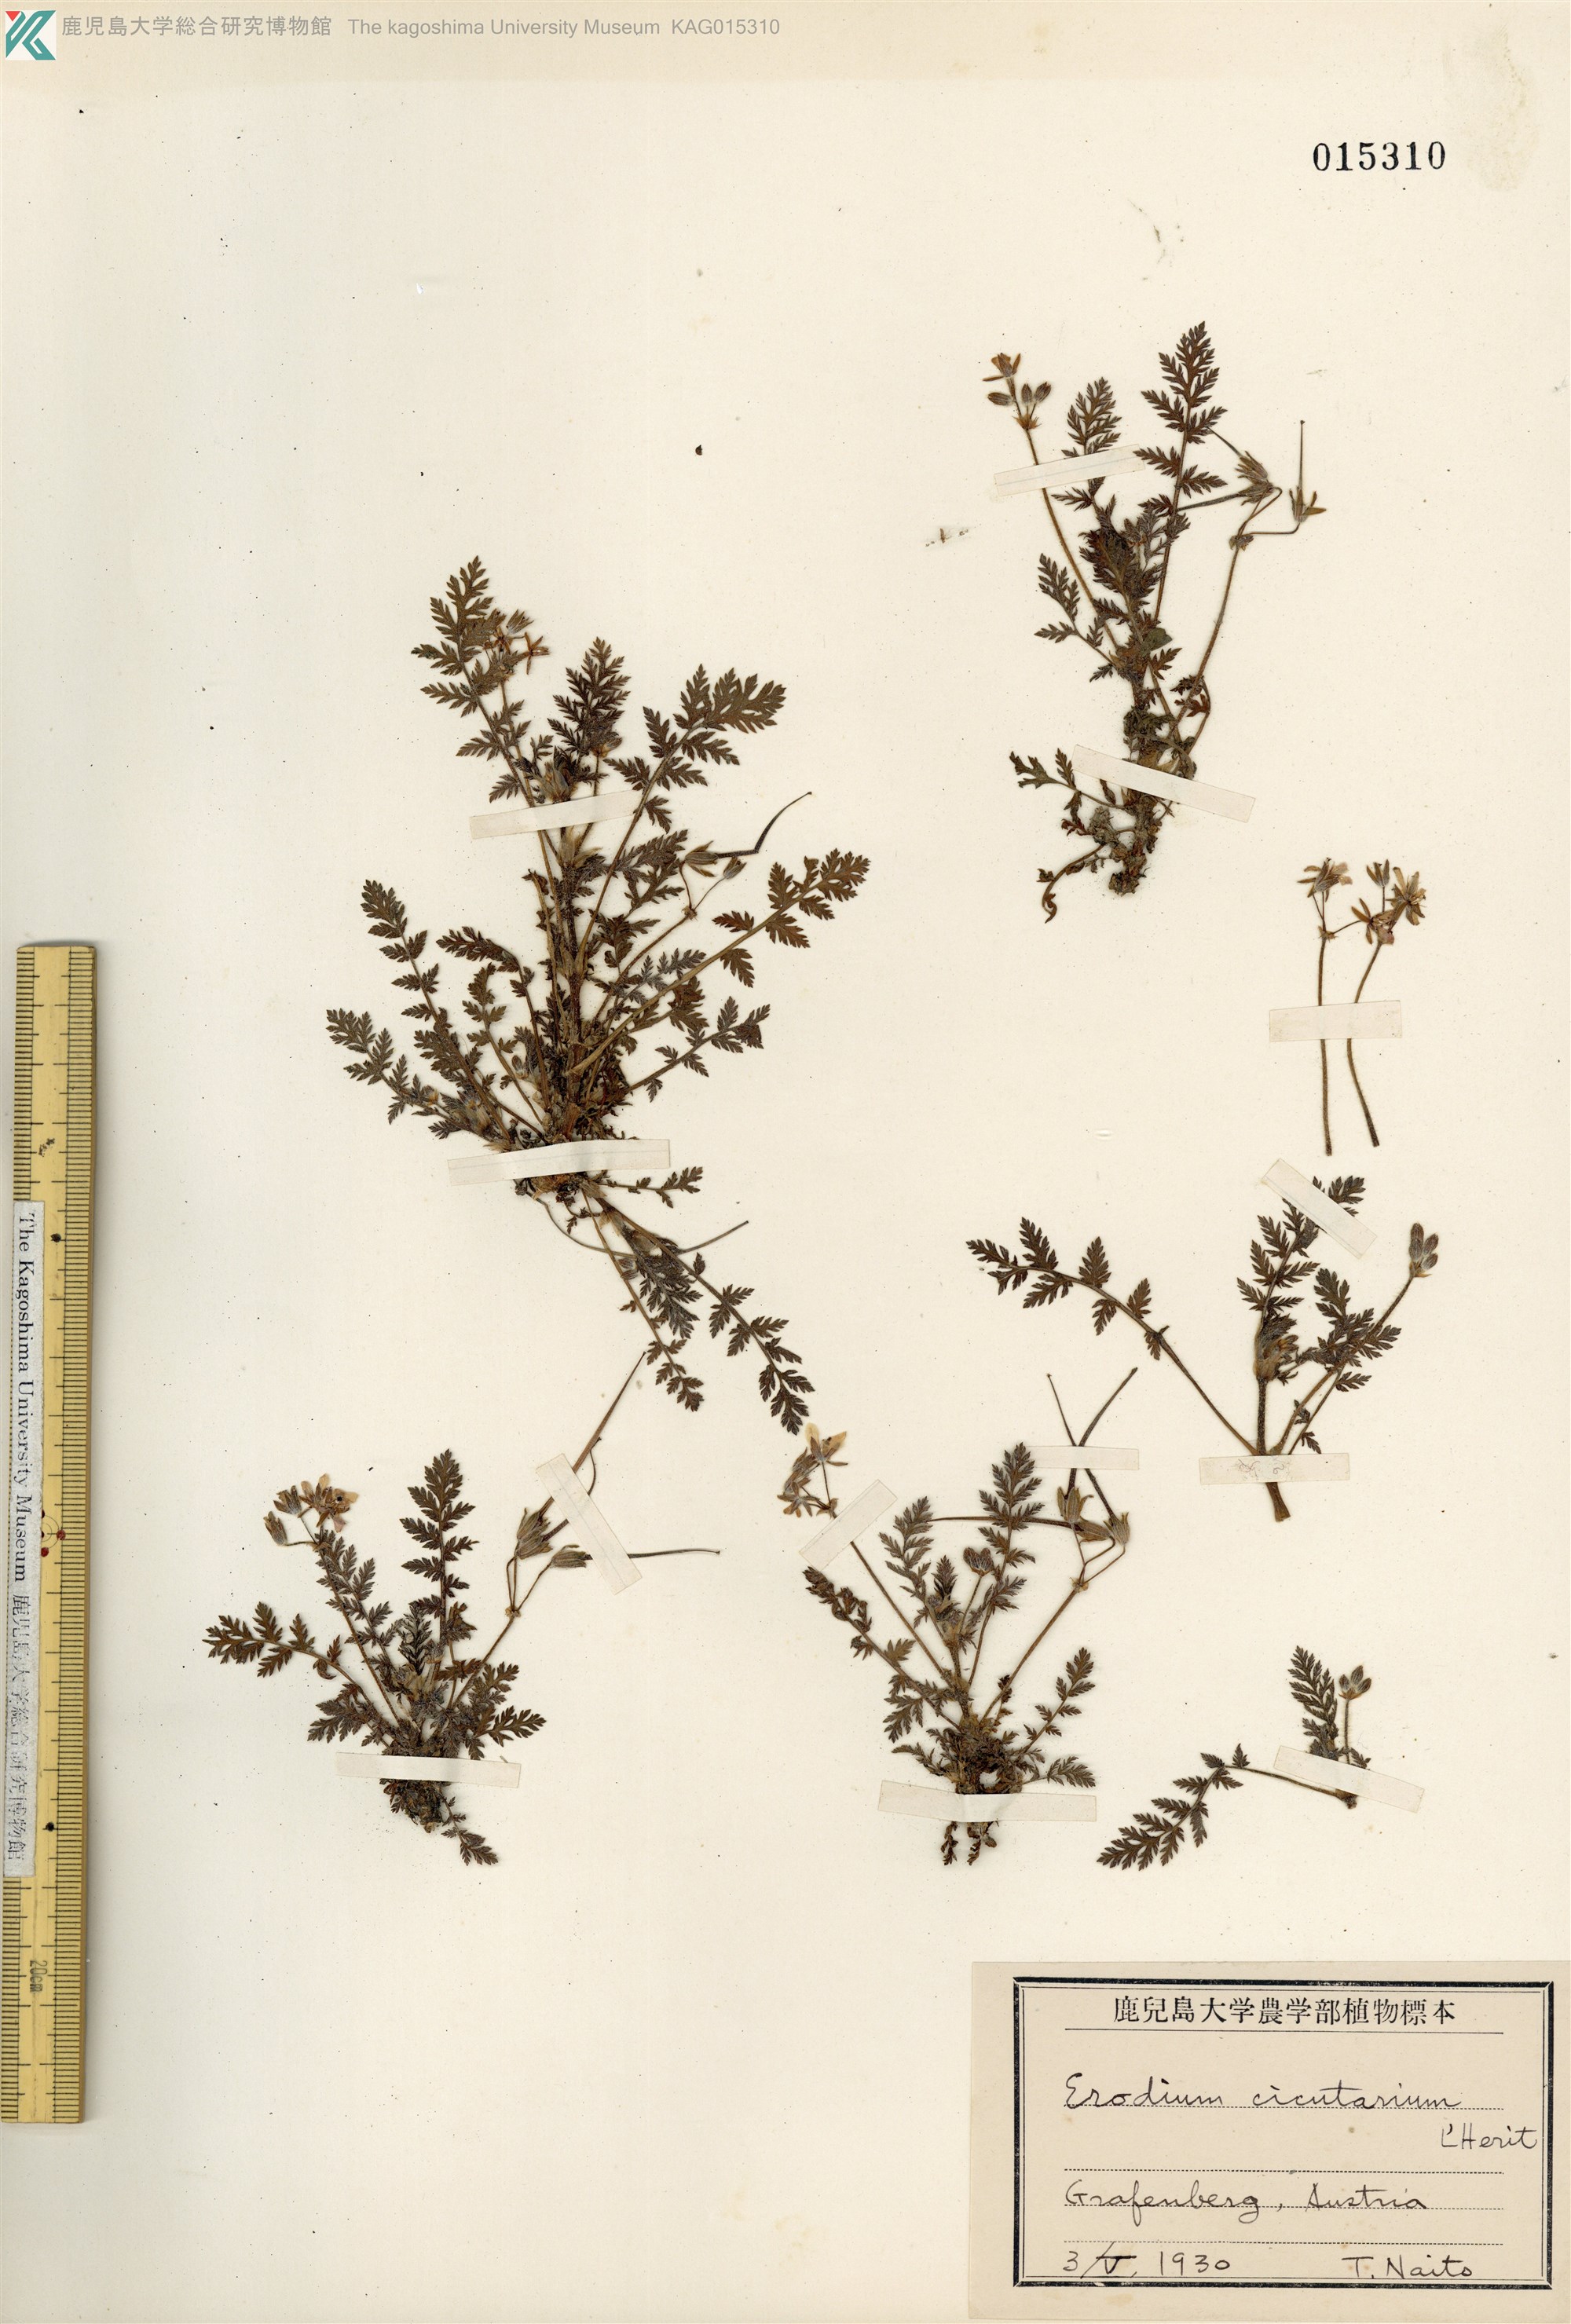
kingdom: Plantae
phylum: Tracheophyta
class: Magnoliopsida
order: Geraniales
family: Geraniaceae
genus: Erodium
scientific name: Erodium moschatum
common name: Musk stork's-bill
